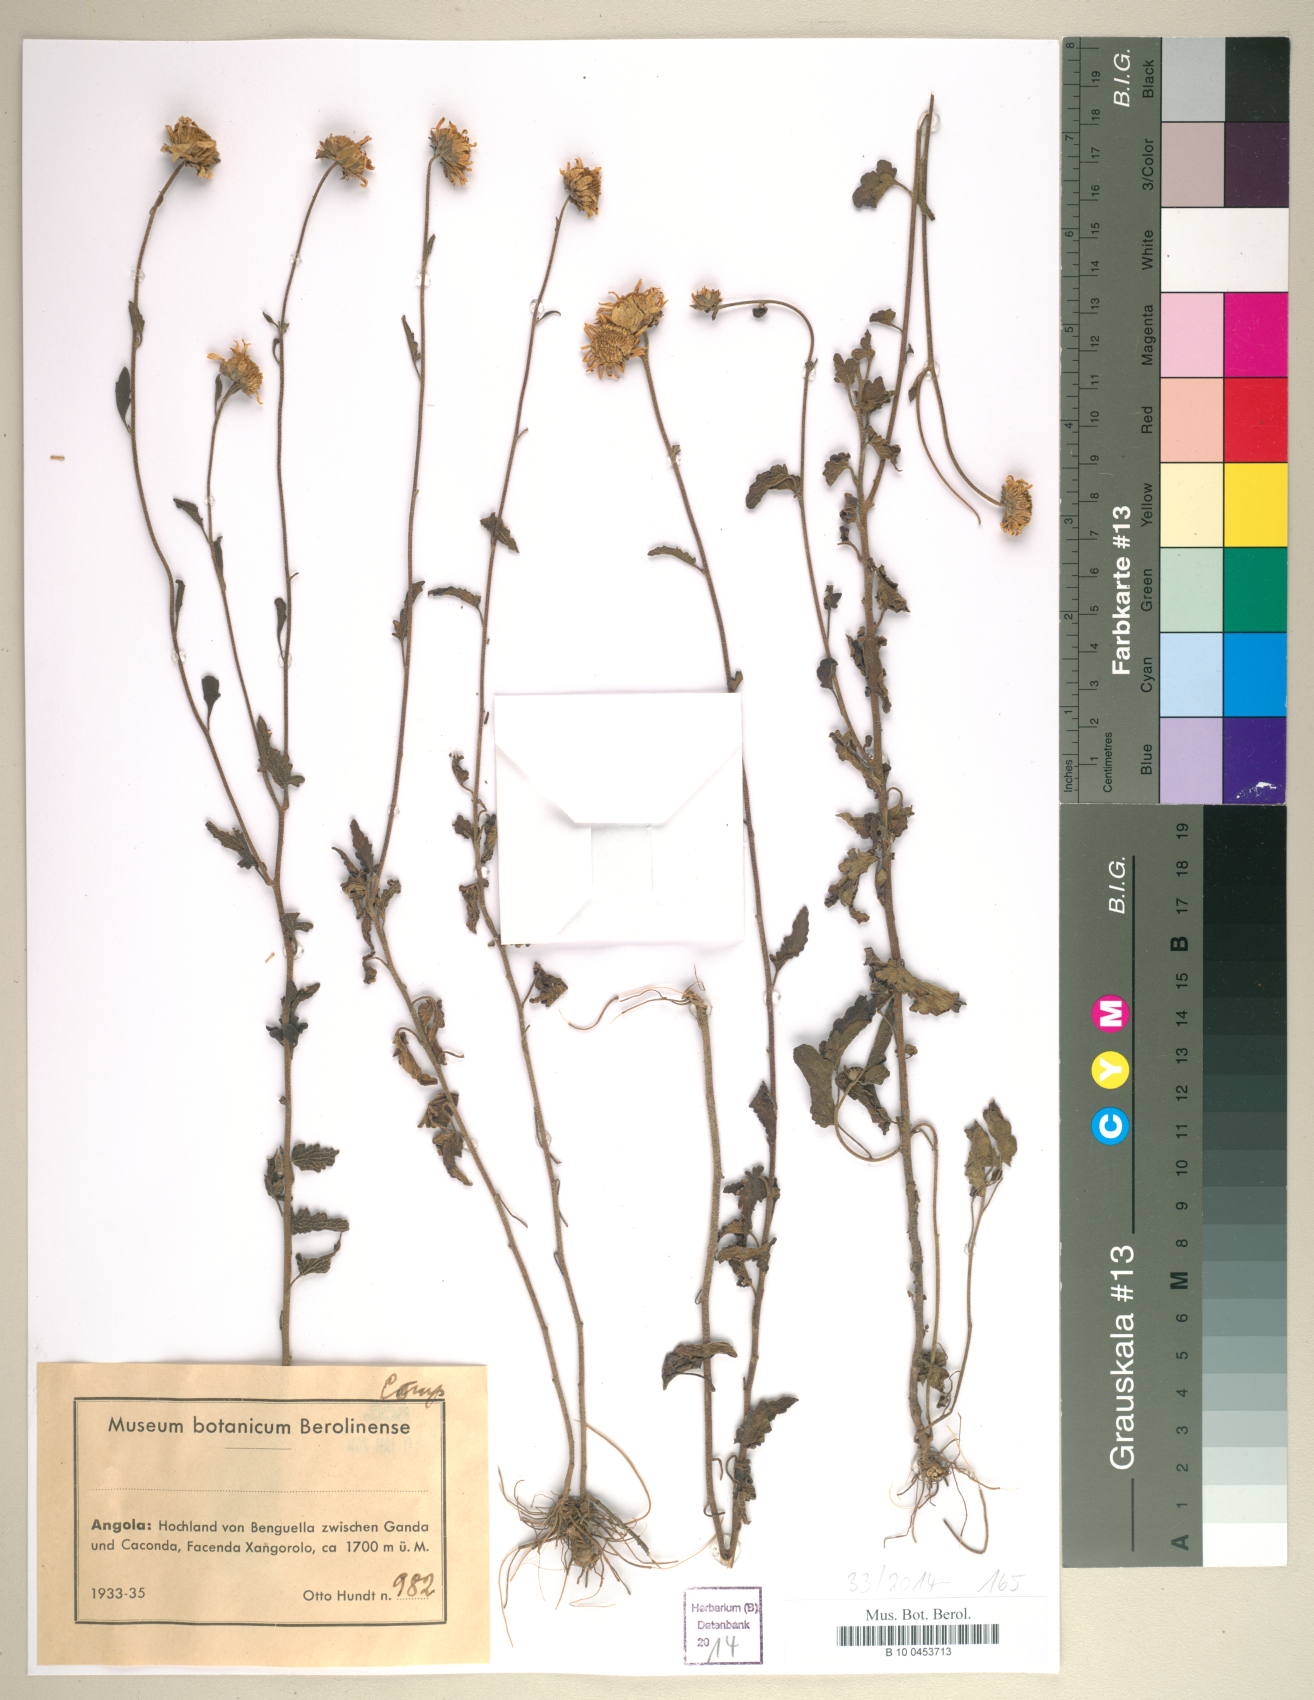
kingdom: Plantae
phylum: Tracheophyta
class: Magnoliopsida
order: Asterales
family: Asteraceae
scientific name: Asteraceae
